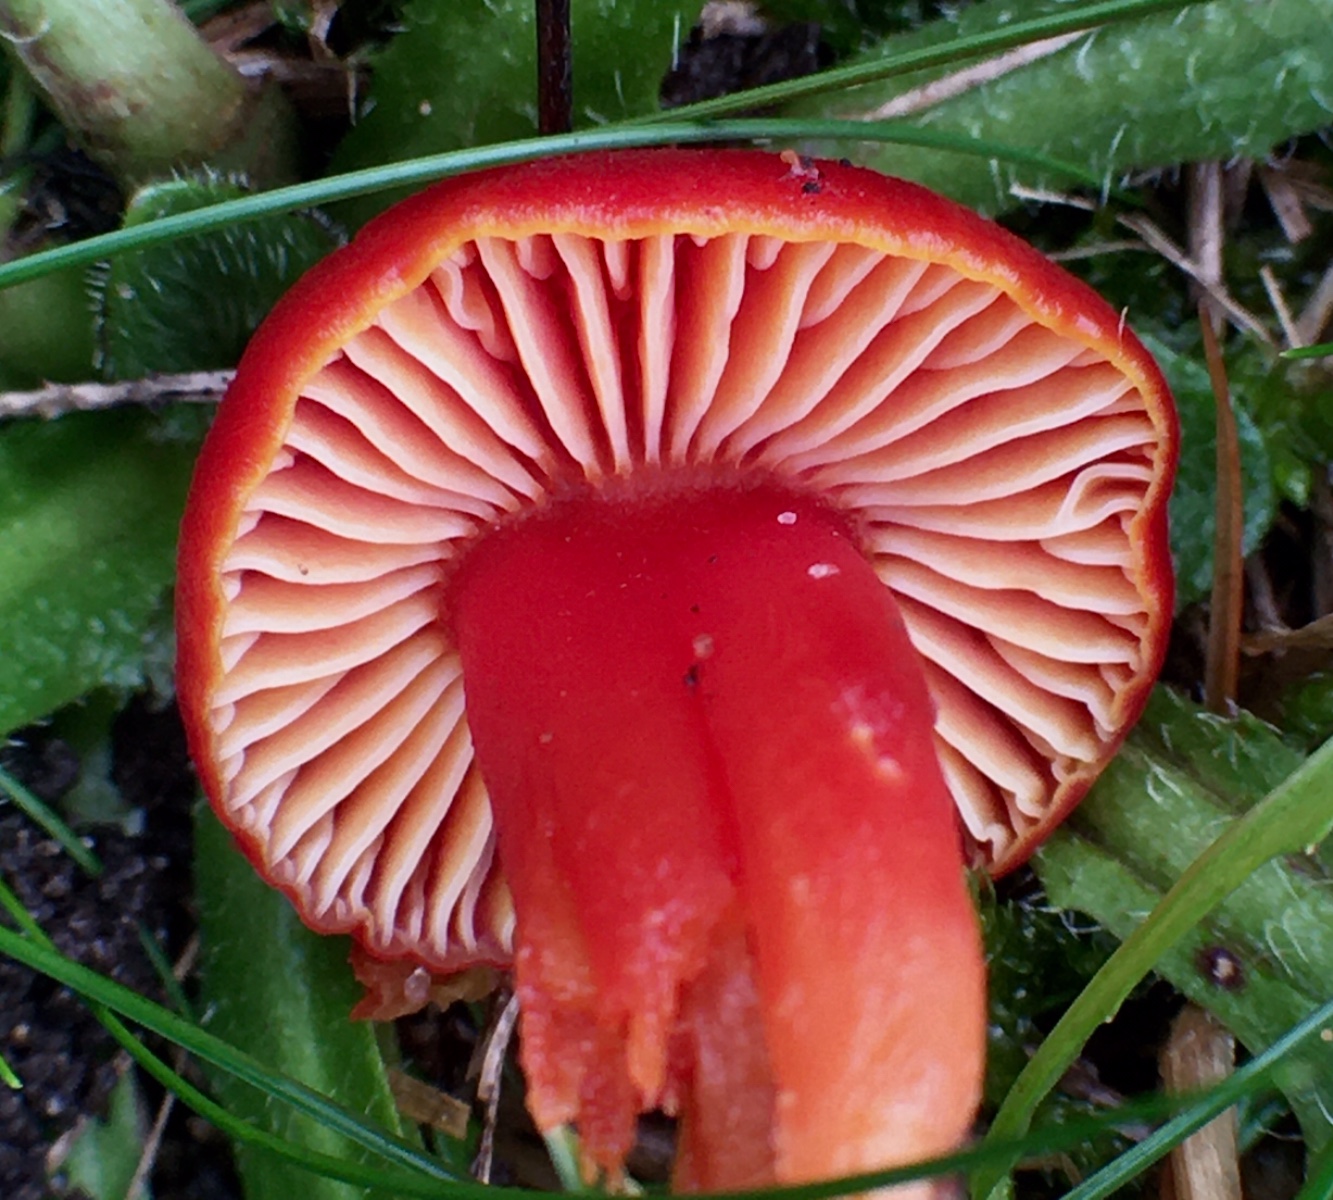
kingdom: Fungi
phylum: Basidiomycota
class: Agaricomycetes
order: Agaricales
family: Hygrophoraceae
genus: Hygrocybe
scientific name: Hygrocybe coccinea
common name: cinnober-vokshat
